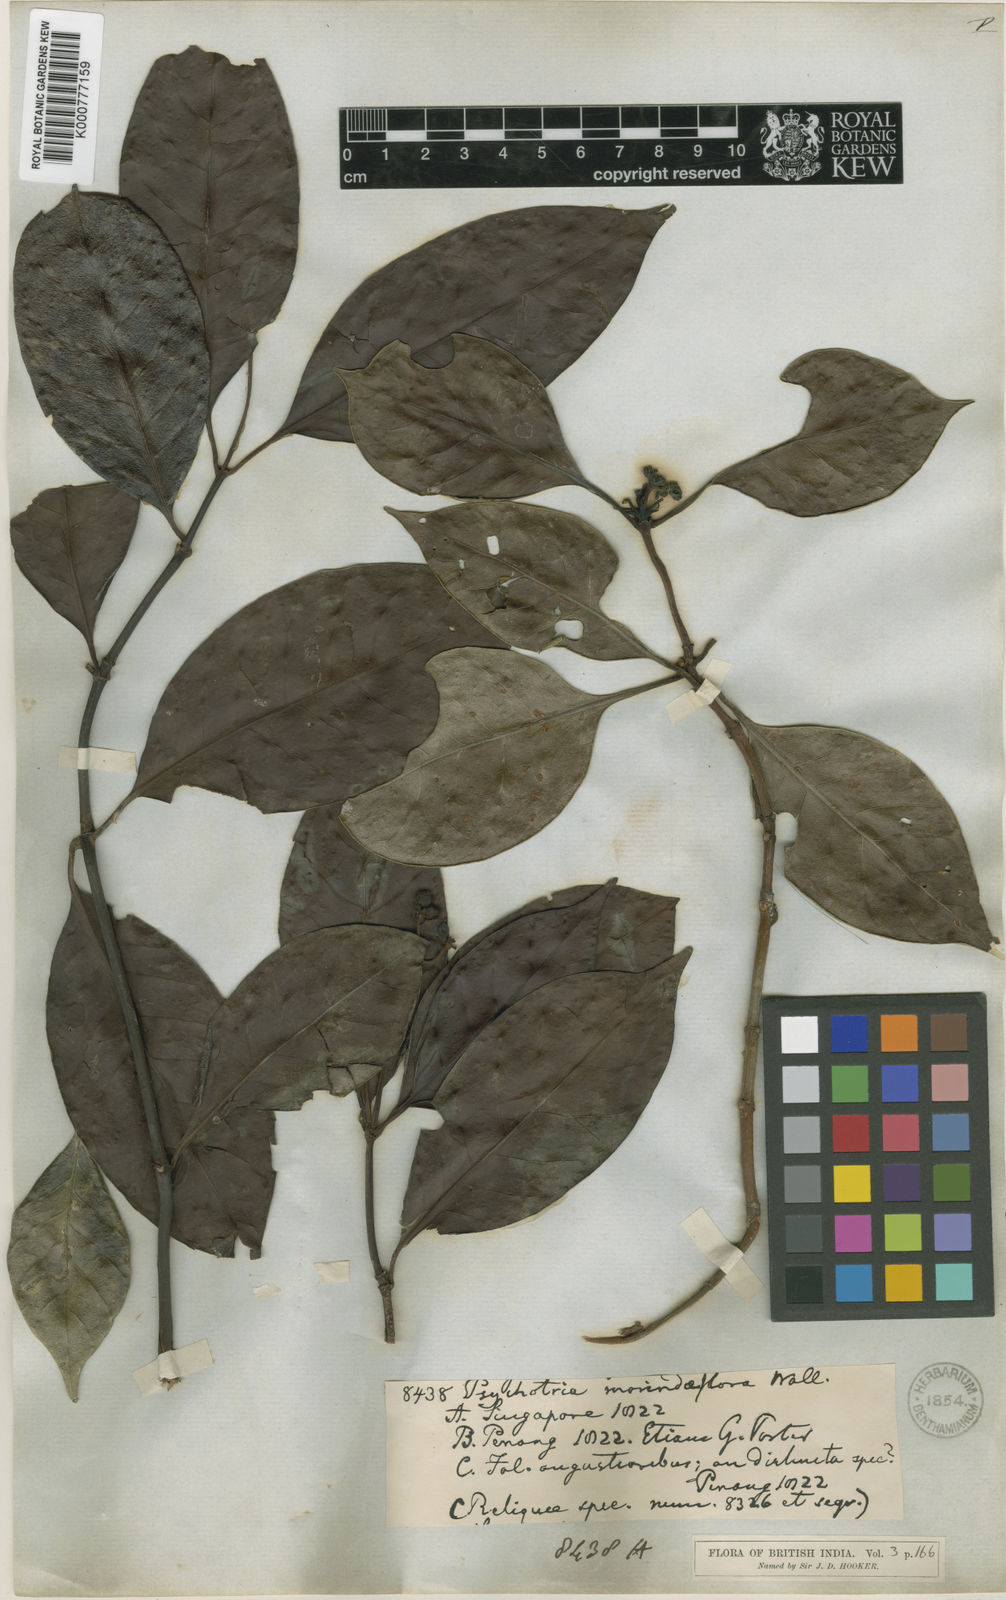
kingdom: Plantae
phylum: Tracheophyta
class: Magnoliopsida
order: Gentianales
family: Rubiaceae
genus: Psychotria
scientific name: Psychotria morindiflora
